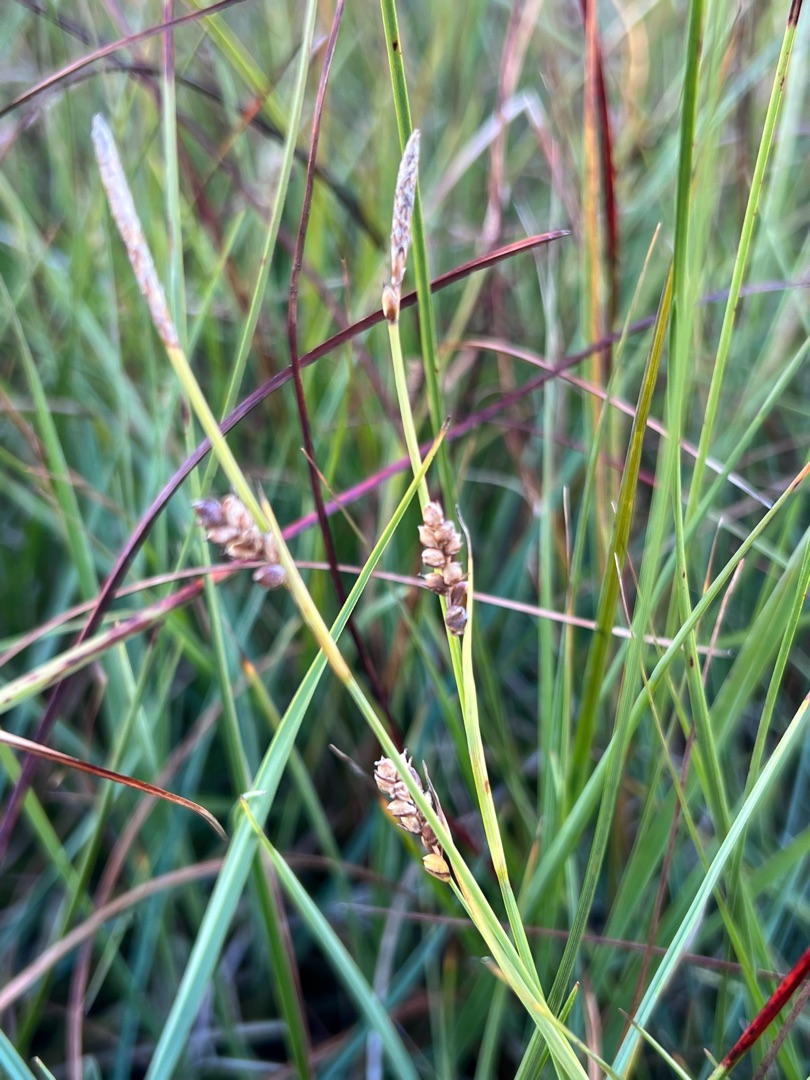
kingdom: Plantae
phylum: Tracheophyta
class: Liliopsida
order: Poales
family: Cyperaceae
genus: Carex
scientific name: Carex panicea
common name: Hirse-star
